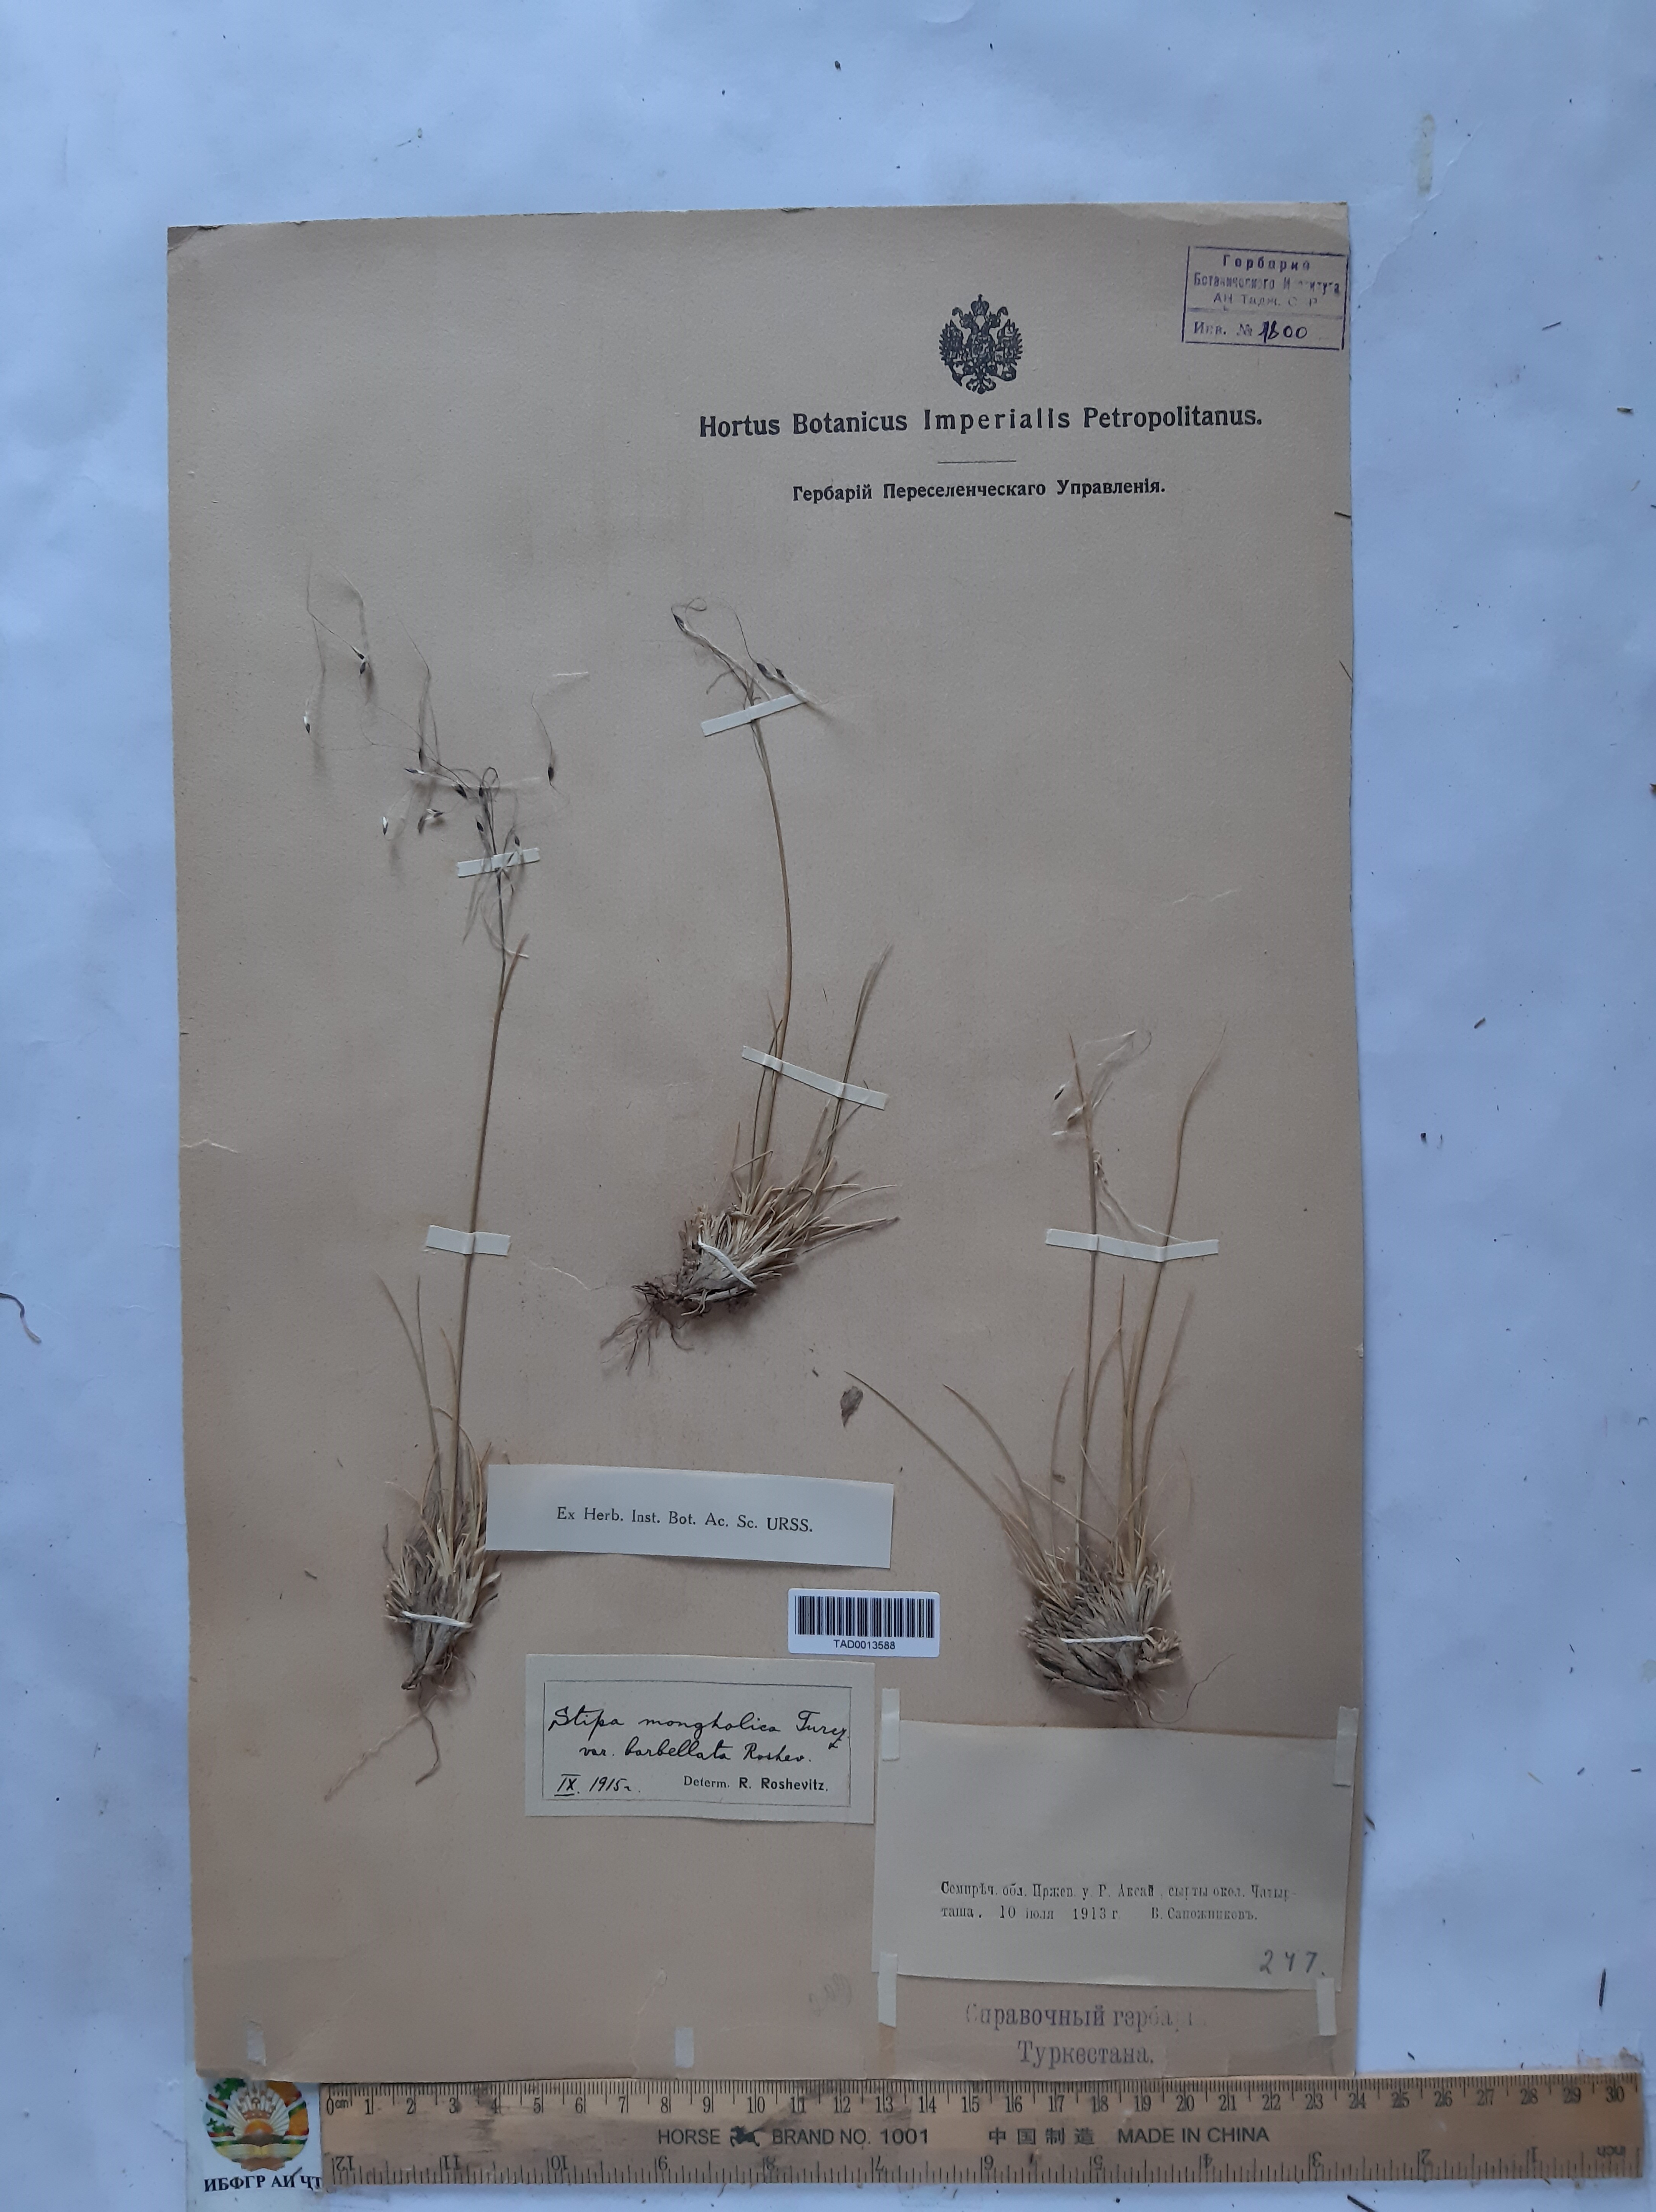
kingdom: Plantae
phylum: Tracheophyta
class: Liliopsida
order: Poales
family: Poaceae
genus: Ptilagrostis
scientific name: Ptilagrostis malyschevii
